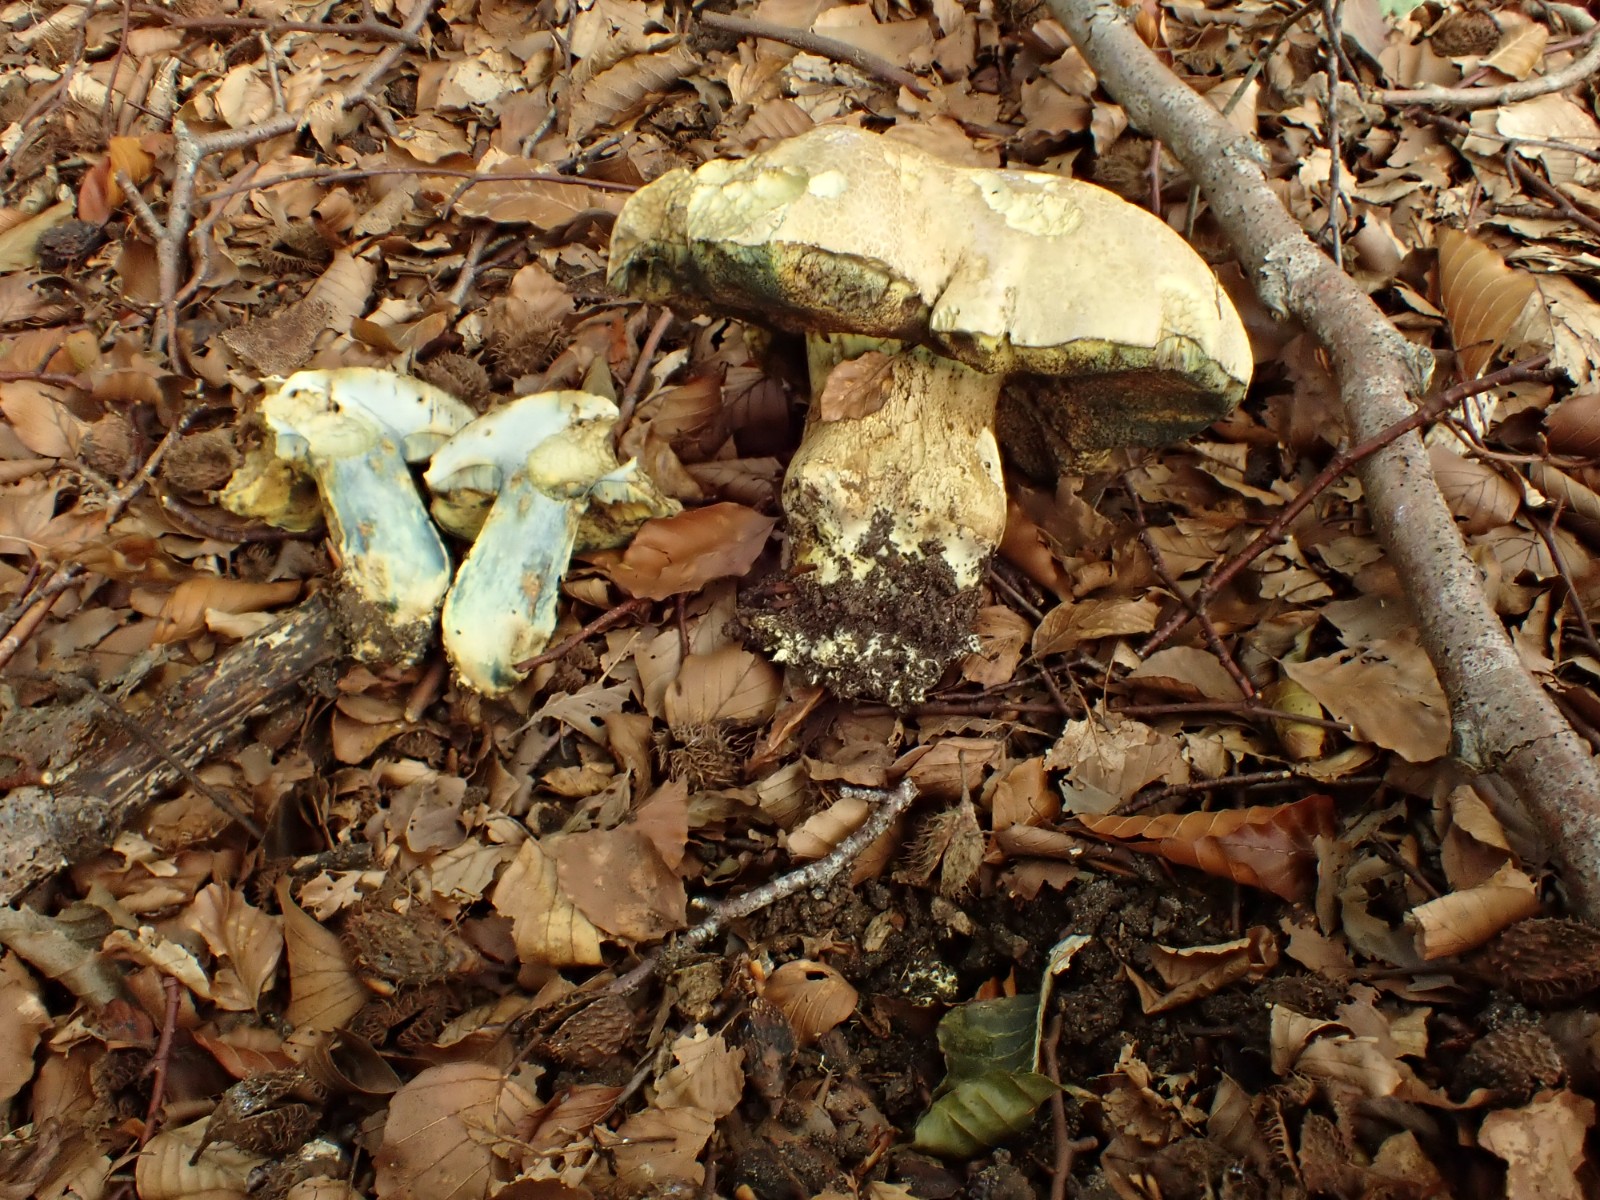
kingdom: Fungi
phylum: Basidiomycota
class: Agaricomycetes
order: Boletales
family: Boletaceae
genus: Caloboletus
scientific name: Caloboletus radicans
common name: rod-rørhat
